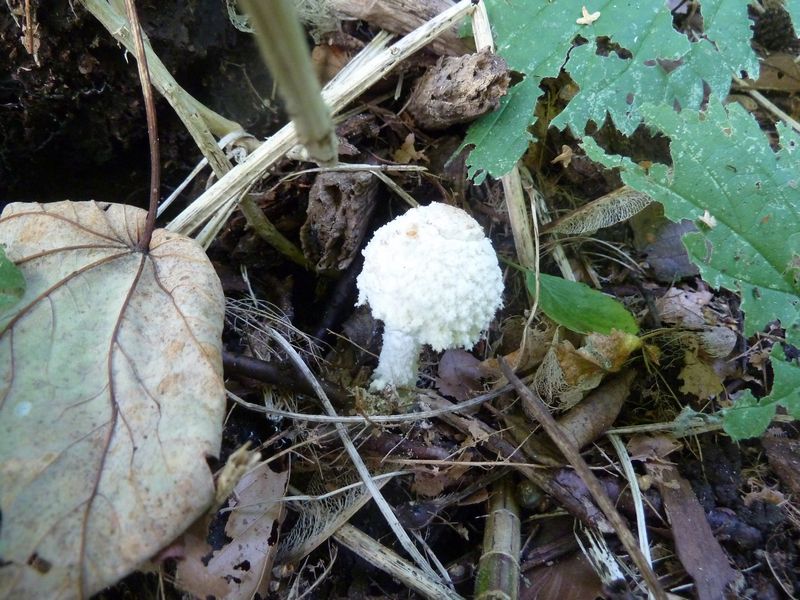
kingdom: Fungi
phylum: Basidiomycota
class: Agaricomycetes
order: Agaricales
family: Agaricaceae
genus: Cystolepiota
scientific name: Cystolepiota adulterina
